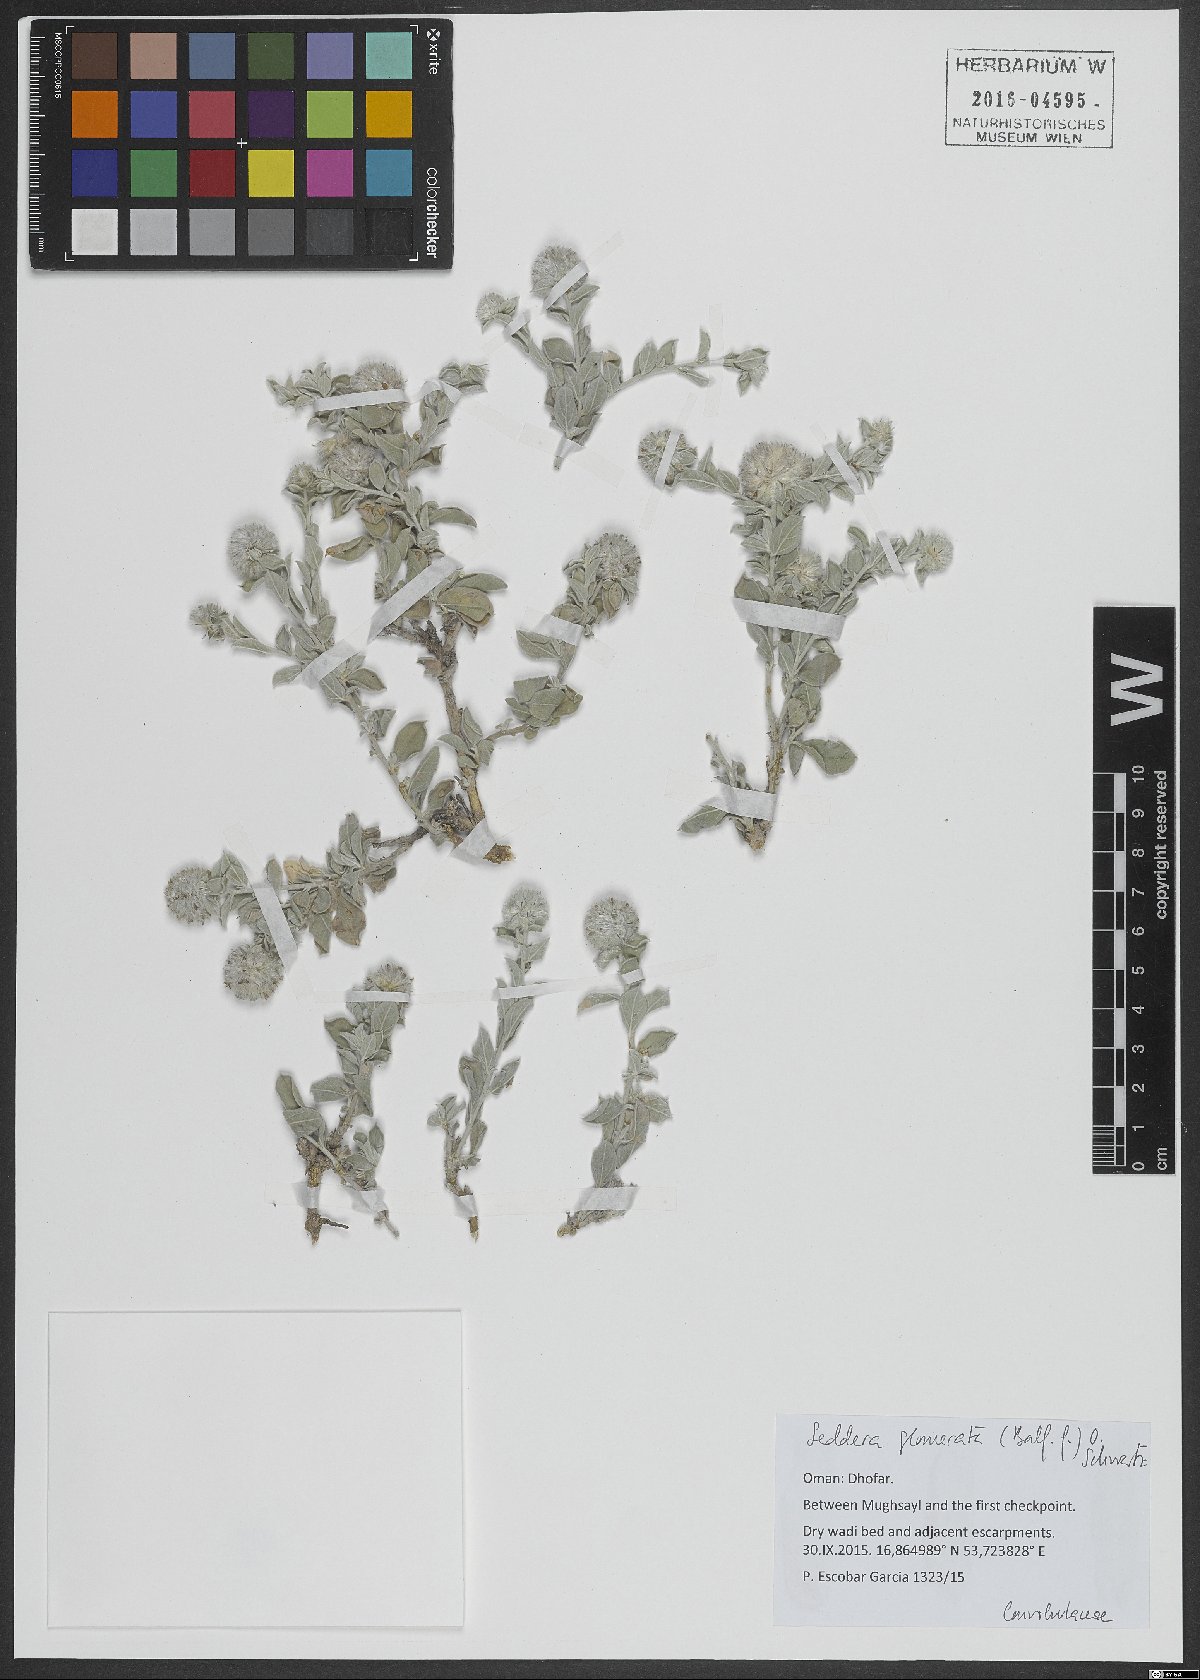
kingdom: Plantae
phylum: Tracheophyta
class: Magnoliopsida
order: Solanales
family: Convolvulaceae
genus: Seddera
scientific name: Seddera glomerata
